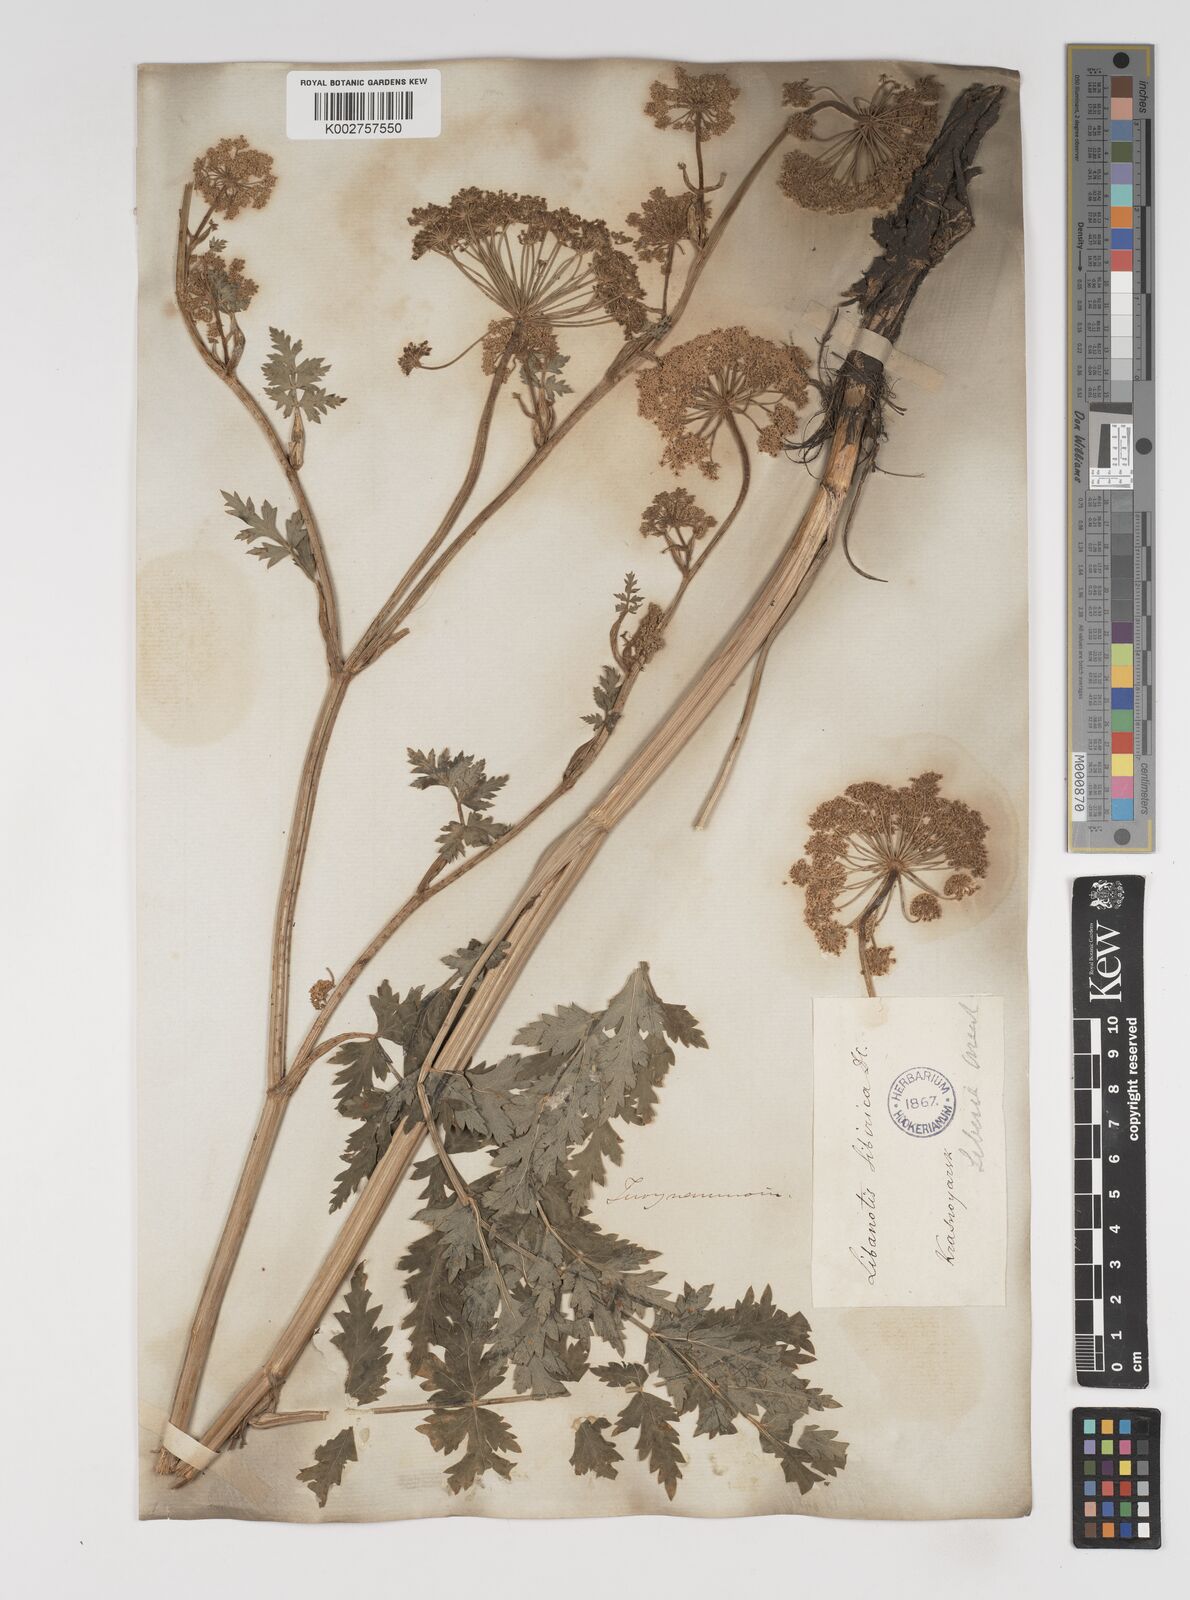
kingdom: Plantae
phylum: Tracheophyta
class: Magnoliopsida
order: Apiales
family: Apiaceae
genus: Seseli
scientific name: Seseli libanotis
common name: Mooncarrot
